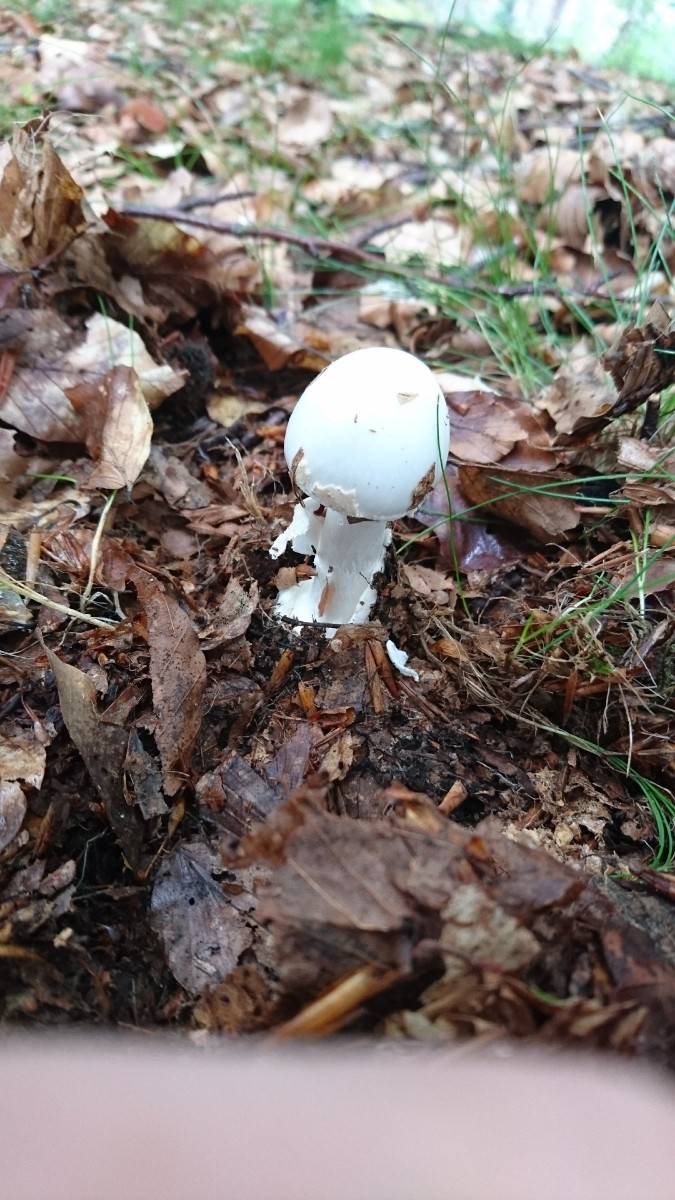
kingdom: Fungi
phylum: Basidiomycota
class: Agaricomycetes
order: Agaricales
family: Amanitaceae
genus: Amanita
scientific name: Amanita virosa
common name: snehvid fluesvamp
